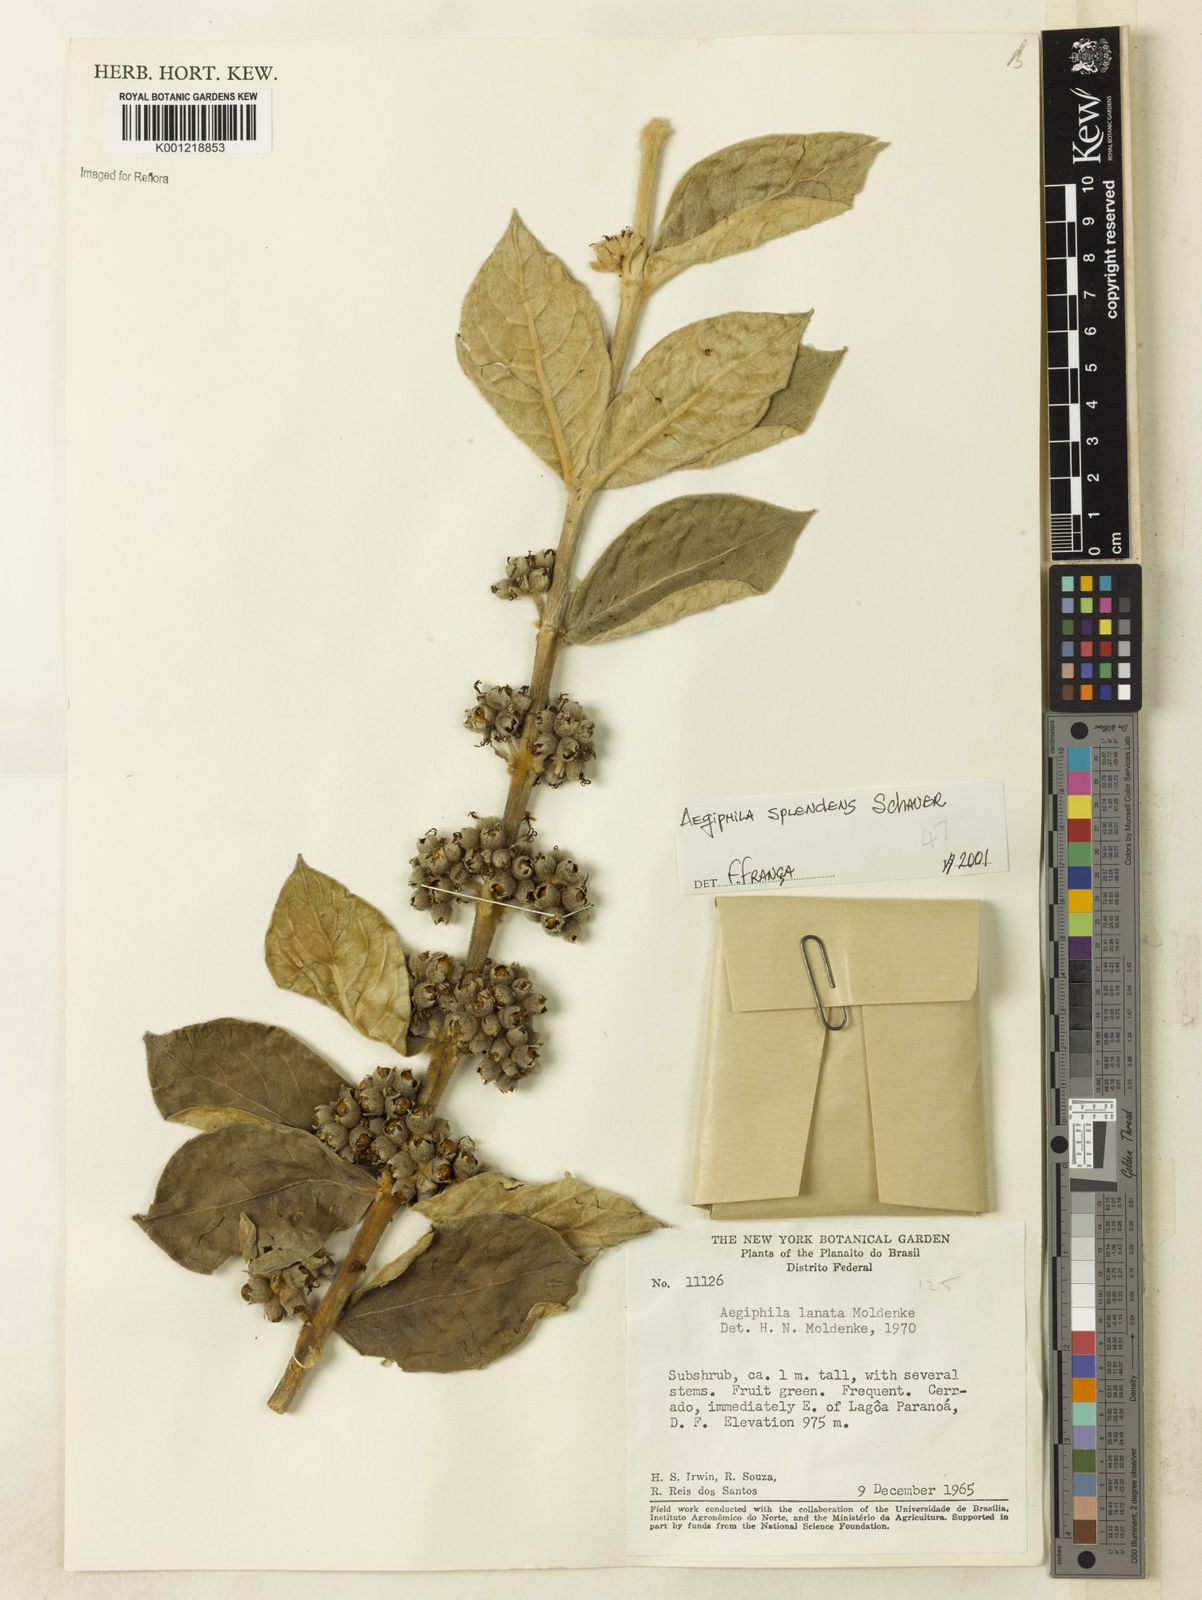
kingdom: Plantae
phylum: Tracheophyta
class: Magnoliopsida
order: Lamiales
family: Lamiaceae
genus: Aegiphila
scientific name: Aegiphila verticillata
